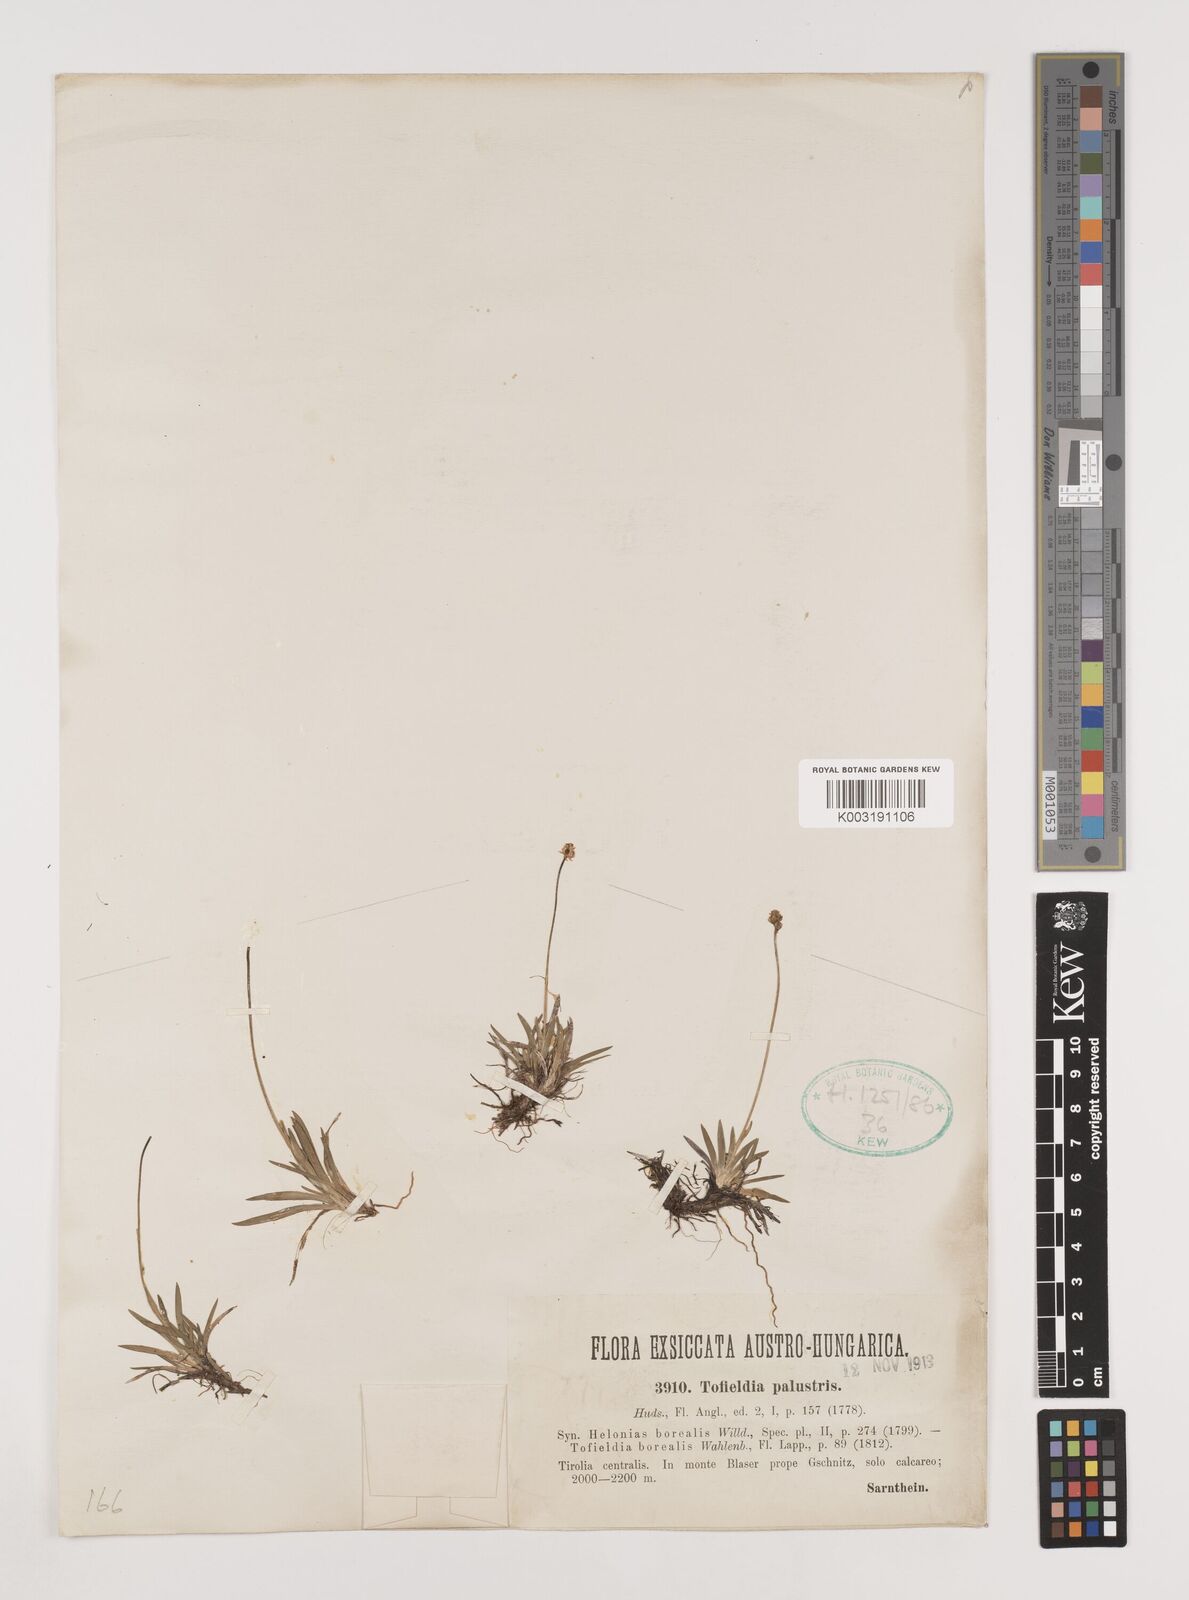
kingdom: Plantae
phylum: Tracheophyta
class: Liliopsida
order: Alismatales
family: Tofieldiaceae
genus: Tofieldia
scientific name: Tofieldia pusilla
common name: Scottish false asphodel
